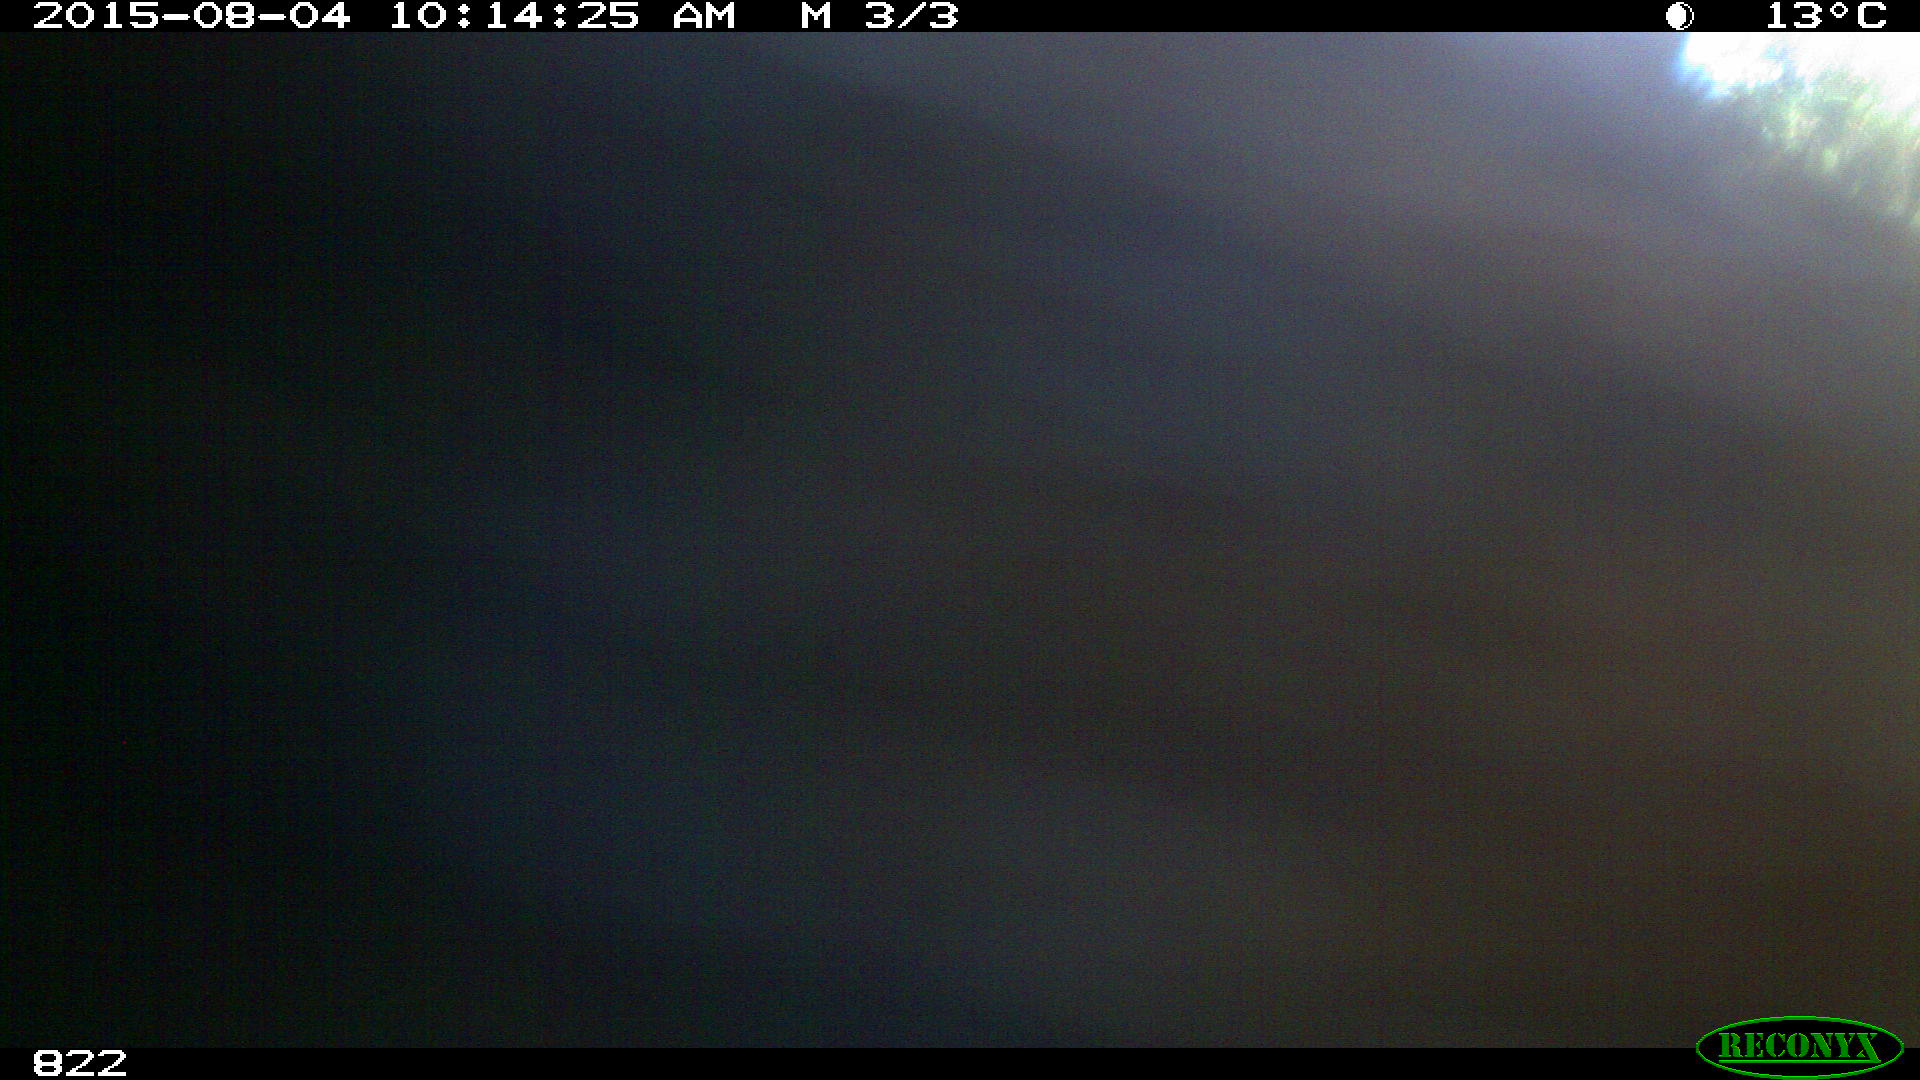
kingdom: Animalia
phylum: Chordata
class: Mammalia
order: Artiodactyla
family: Bovidae
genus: Bos
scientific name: Bos taurus
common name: Domesticated cattle
